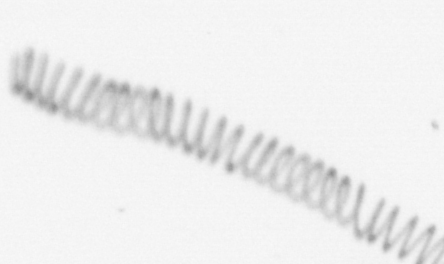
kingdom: Chromista
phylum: Ochrophyta
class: Bacillariophyceae
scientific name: Bacillariophyceae
